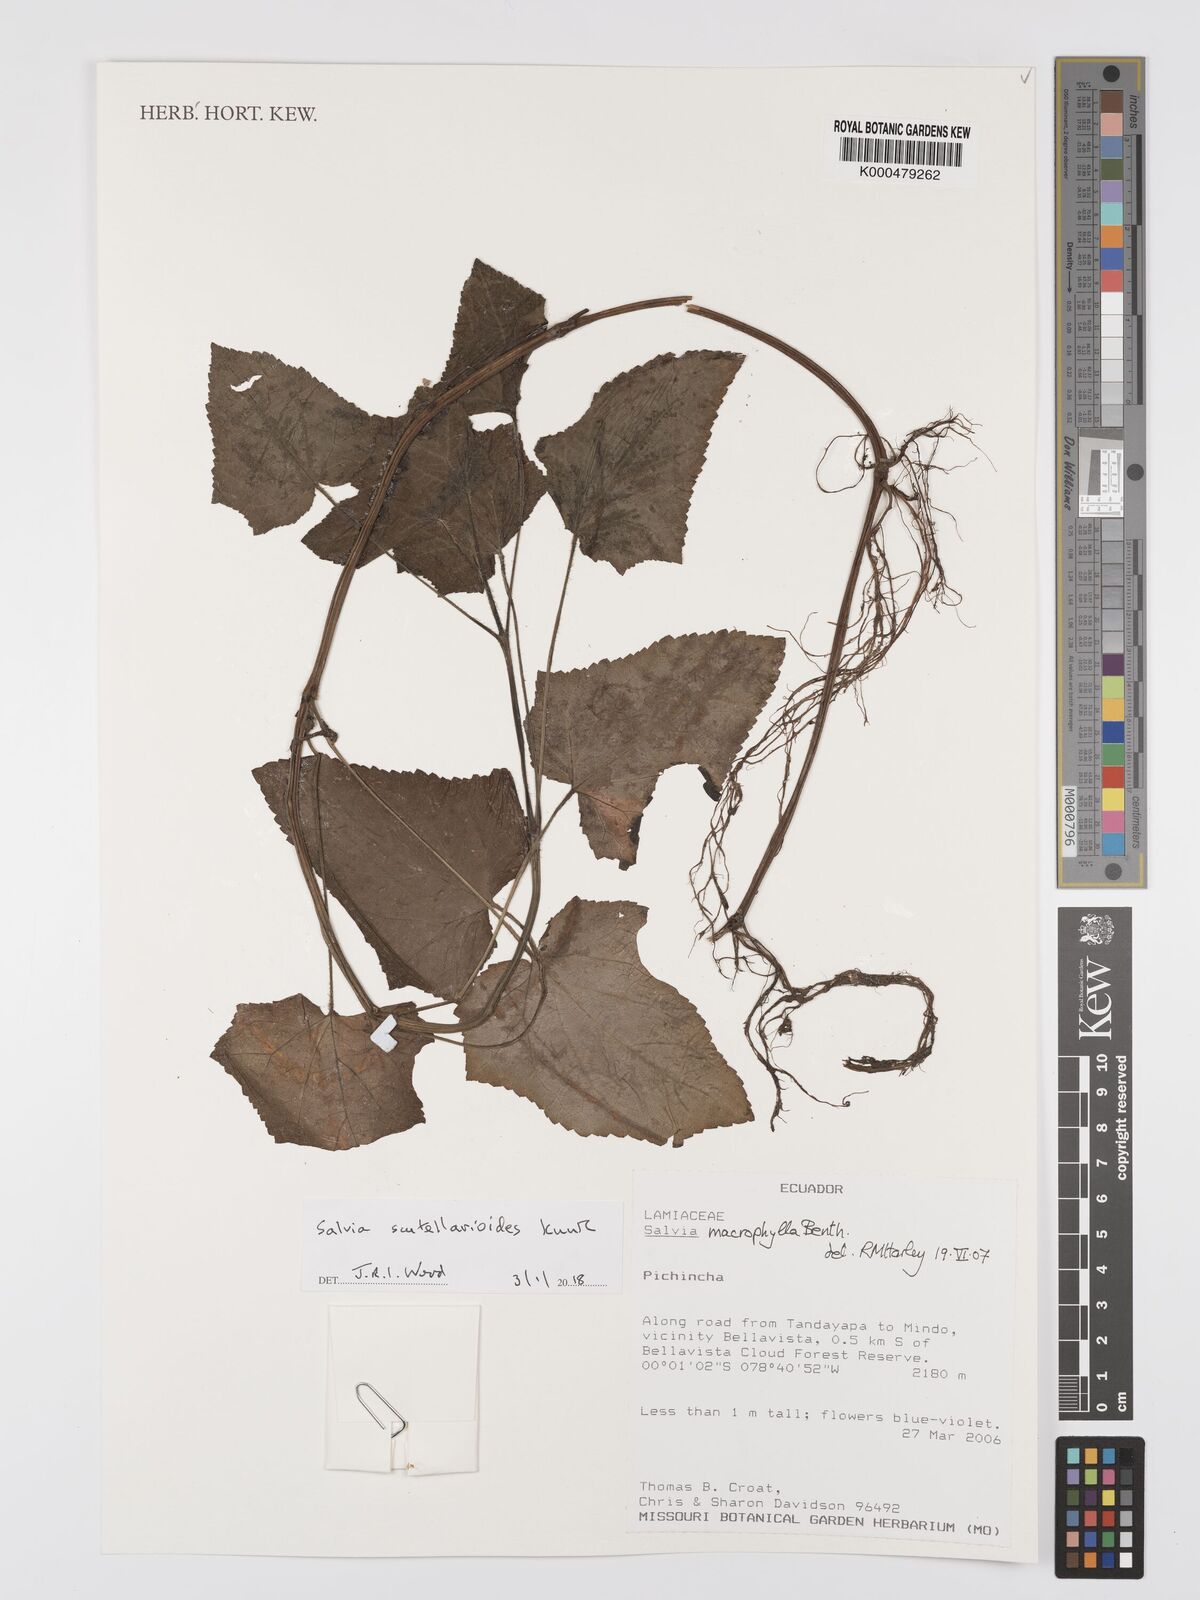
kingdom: Plantae
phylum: Tracheophyta
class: Magnoliopsida
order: Lamiales
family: Lamiaceae
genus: Salvia
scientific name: Salvia scutellarioides
